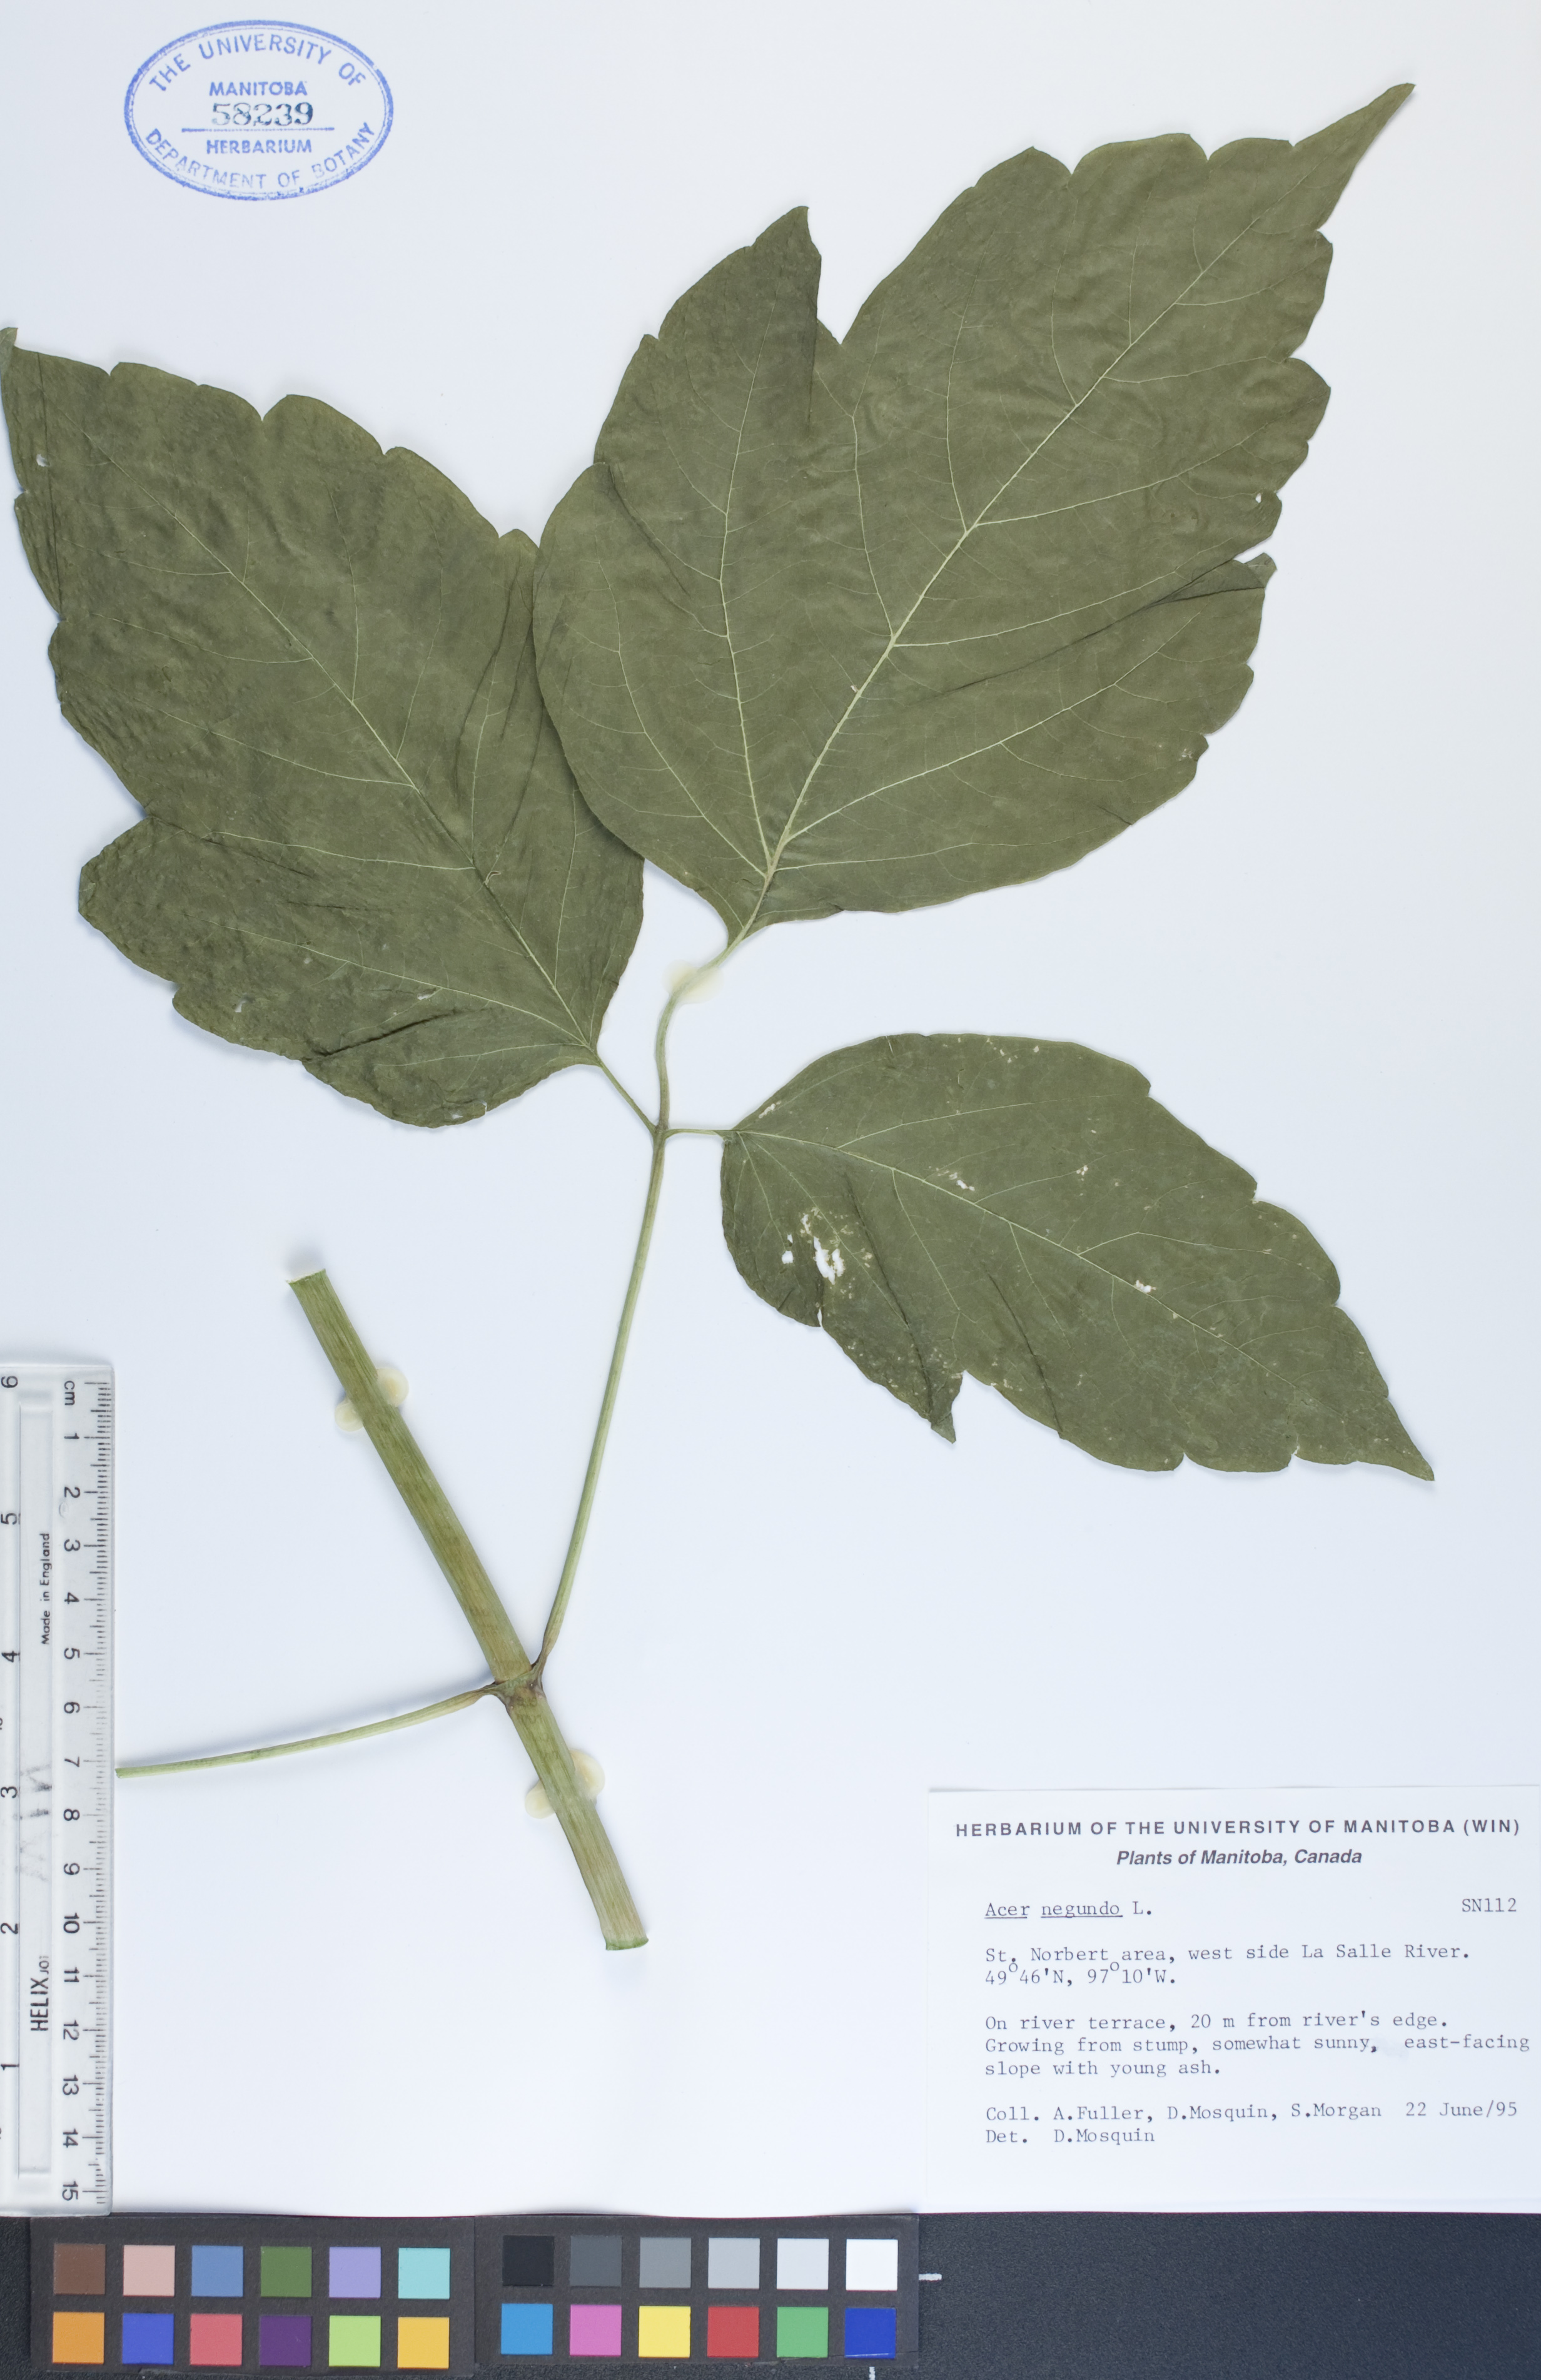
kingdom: Plantae
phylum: Tracheophyta
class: Magnoliopsida
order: Sapindales
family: Sapindaceae
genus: Acer
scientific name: Acer negundo
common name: Ashleaf maple
